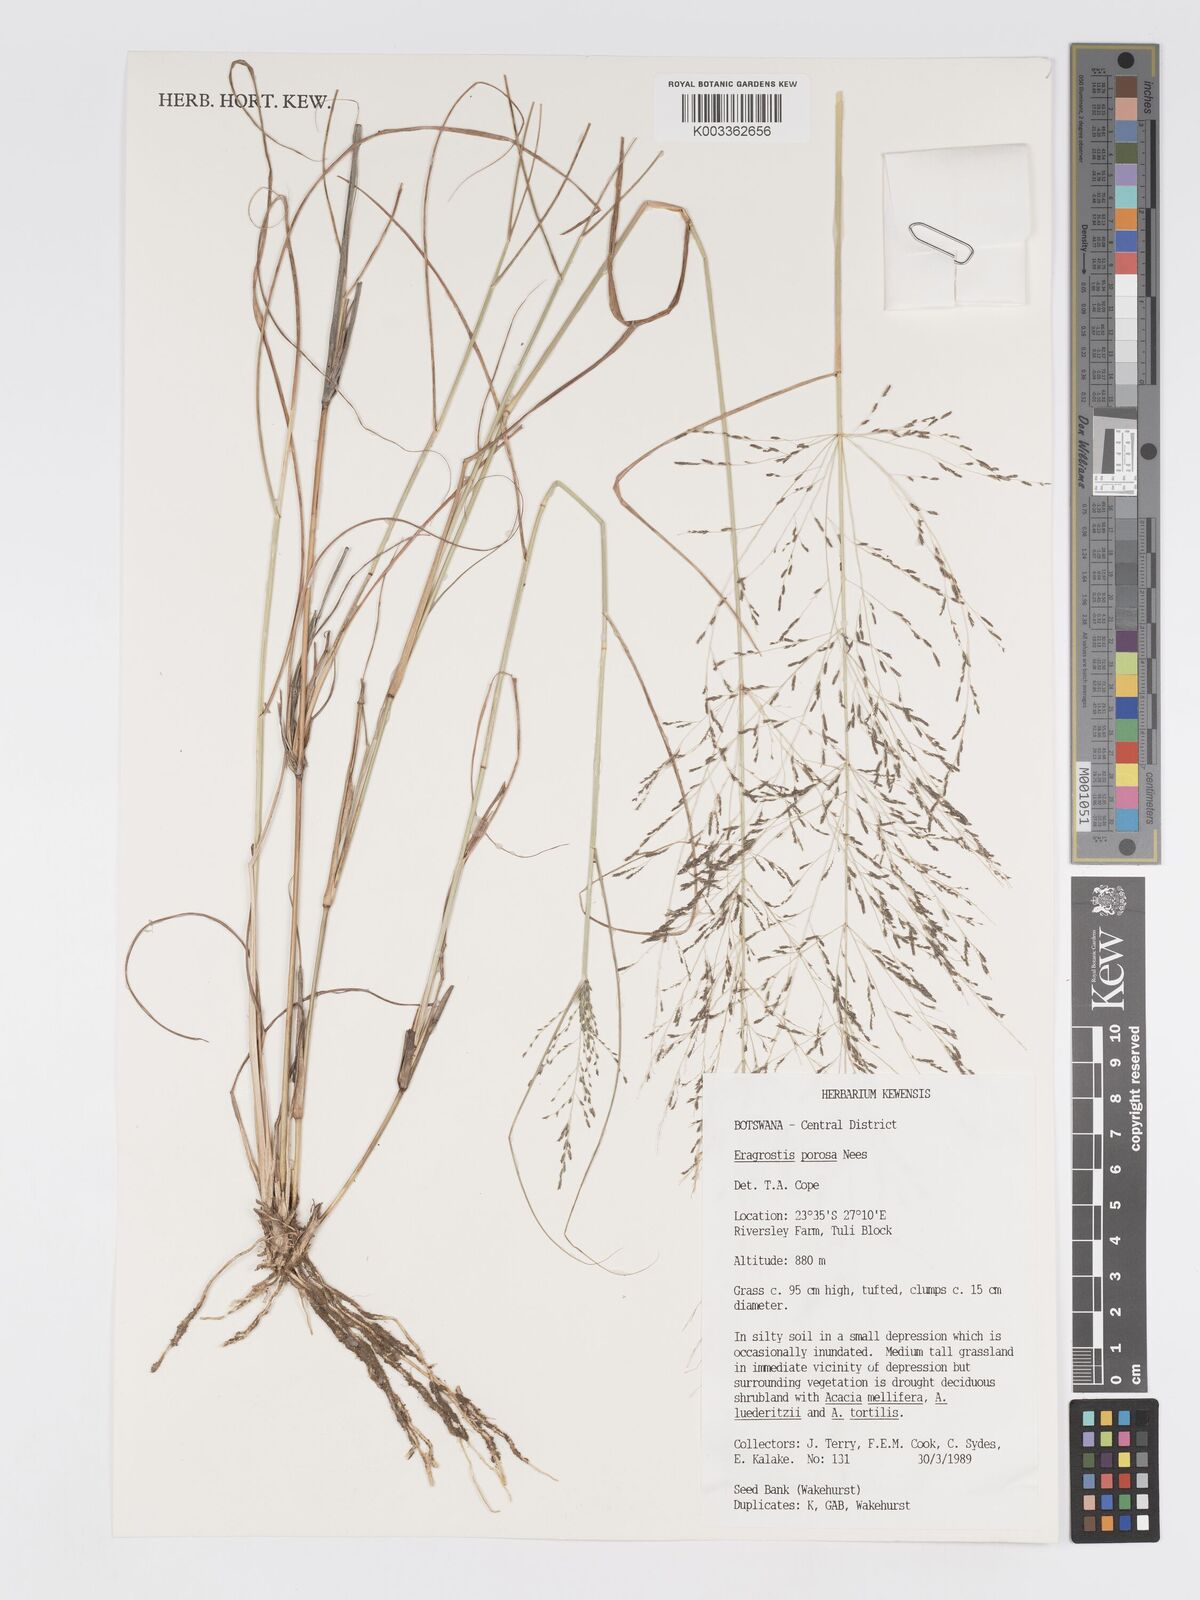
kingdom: Plantae
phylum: Tracheophyta
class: Liliopsida
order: Poales
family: Poaceae
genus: Eragrostis
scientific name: Eragrostis porosa
